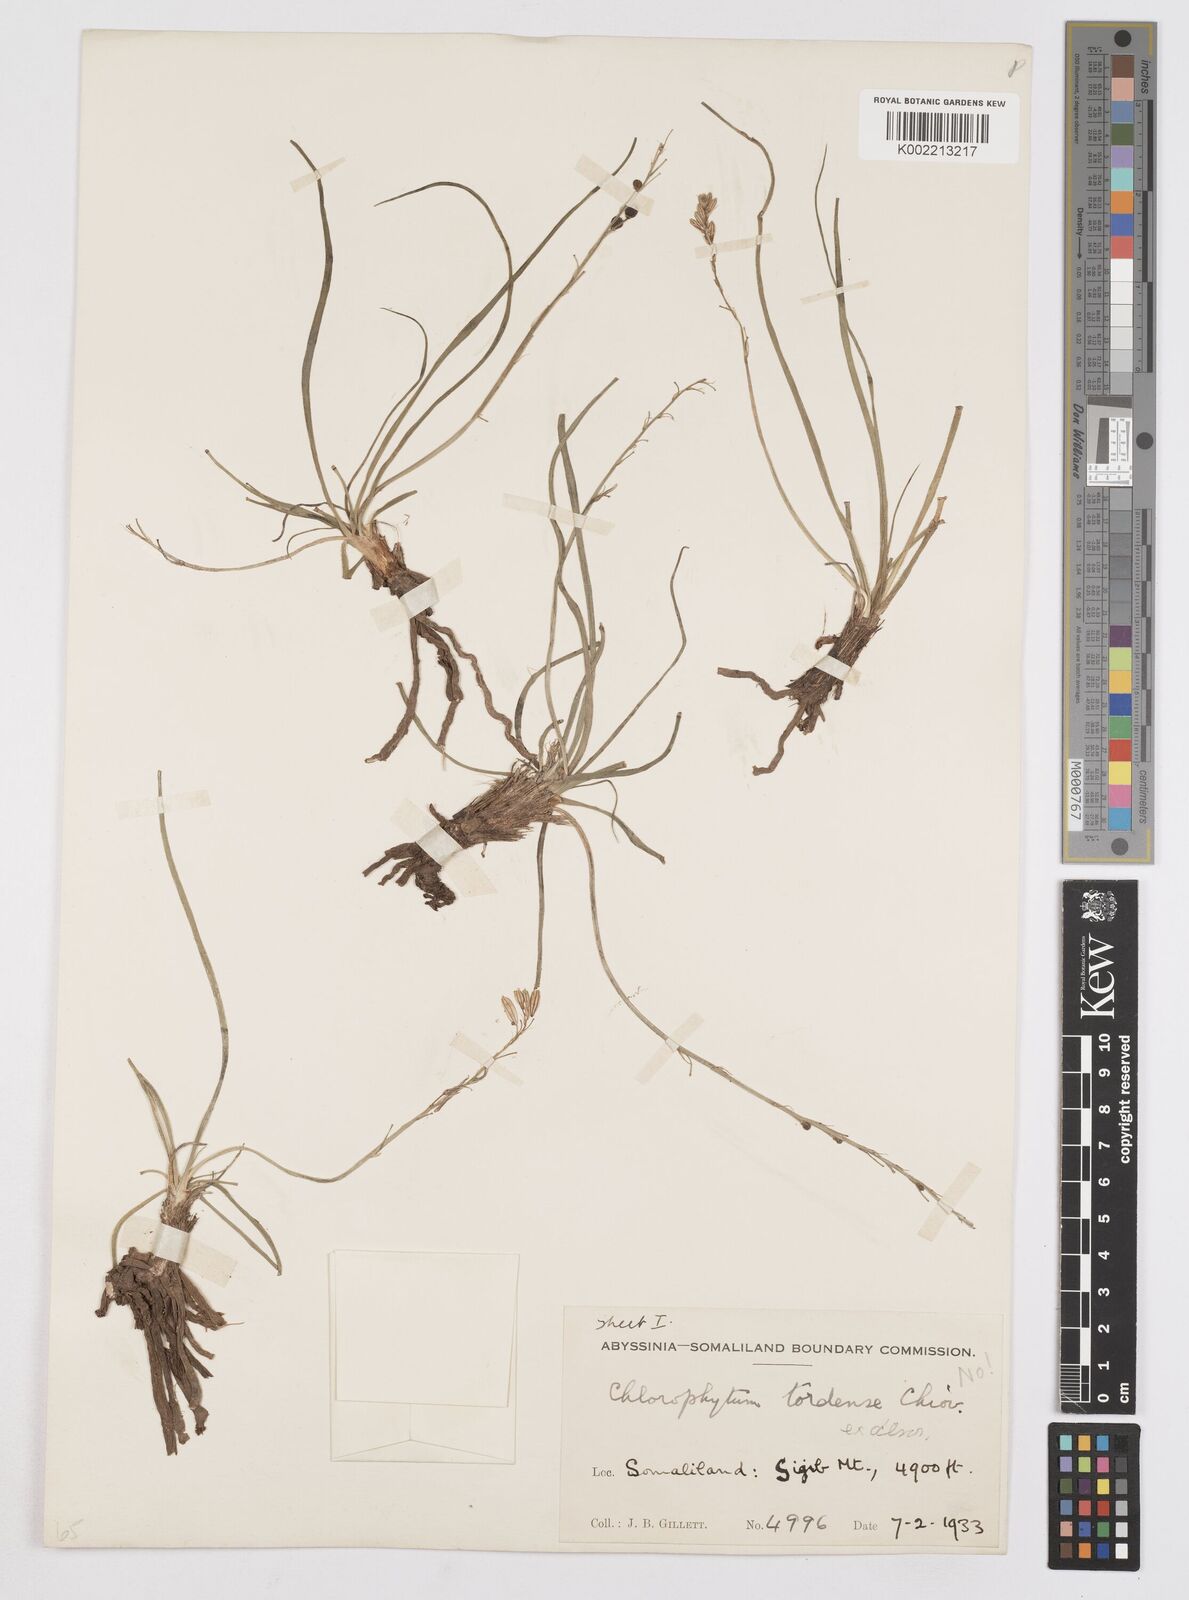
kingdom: Plantae
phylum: Tracheophyta
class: Liliopsida
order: Asparagales
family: Asphodelaceae
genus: Trachyandra
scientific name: Trachyandra saltii
